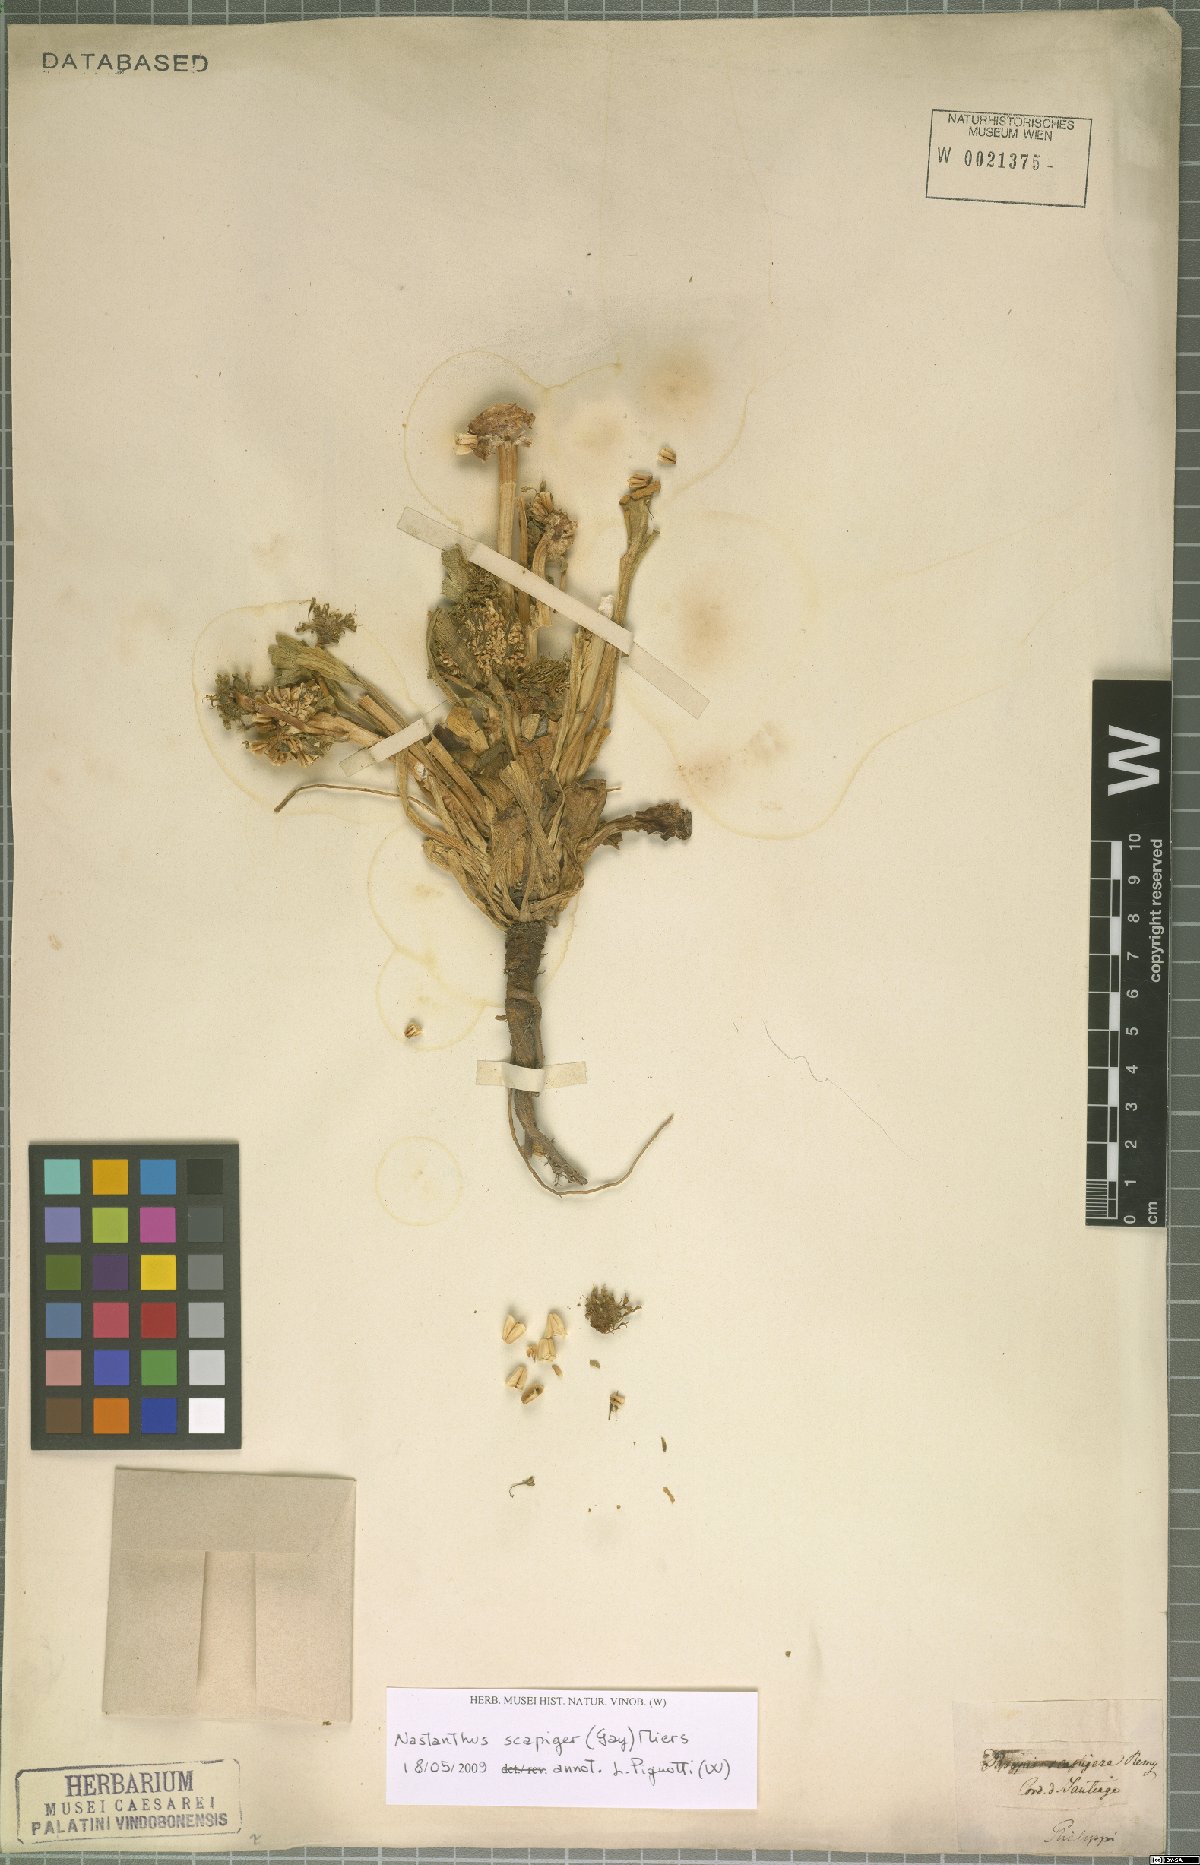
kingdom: Plantae
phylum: Tracheophyta
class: Magnoliopsida
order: Asterales
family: Calyceraceae
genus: Gamocarpha
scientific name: Gamocarpha scapigera
